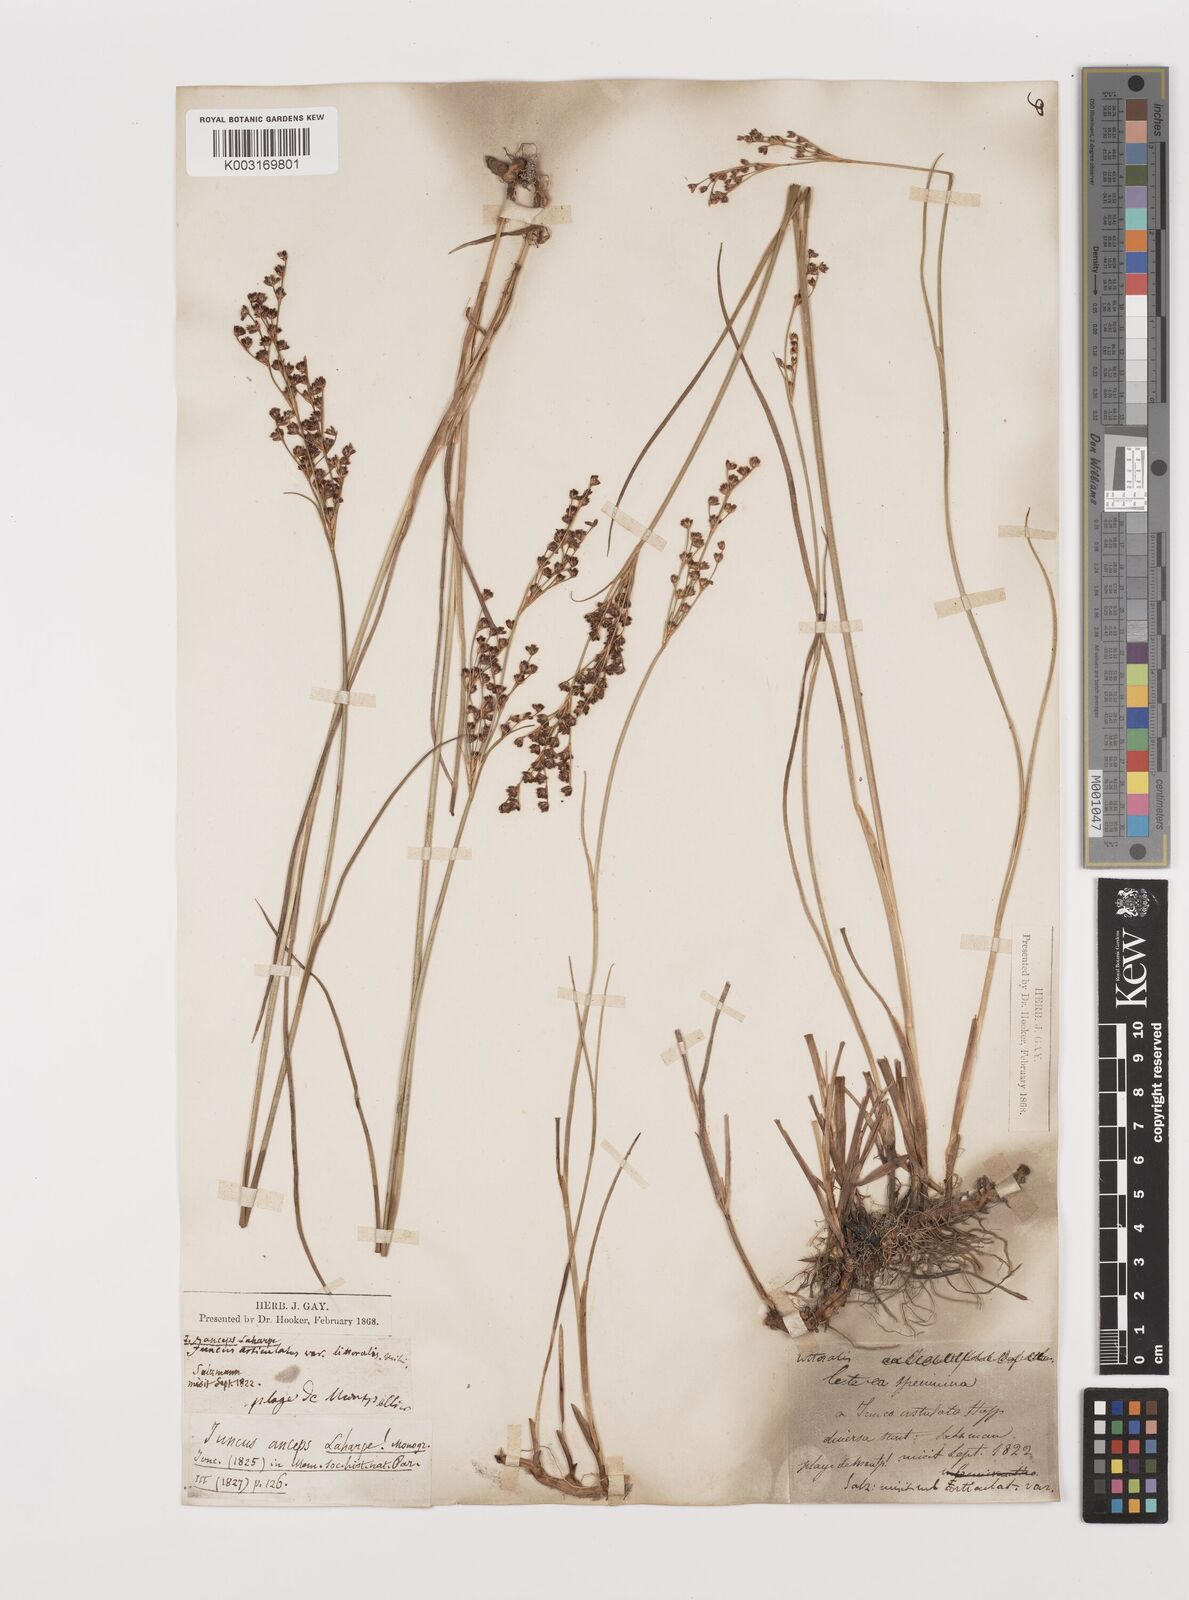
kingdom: Plantae
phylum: Tracheophyta
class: Liliopsida
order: Poales
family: Juncaceae
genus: Juncus
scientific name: Juncus anceps
